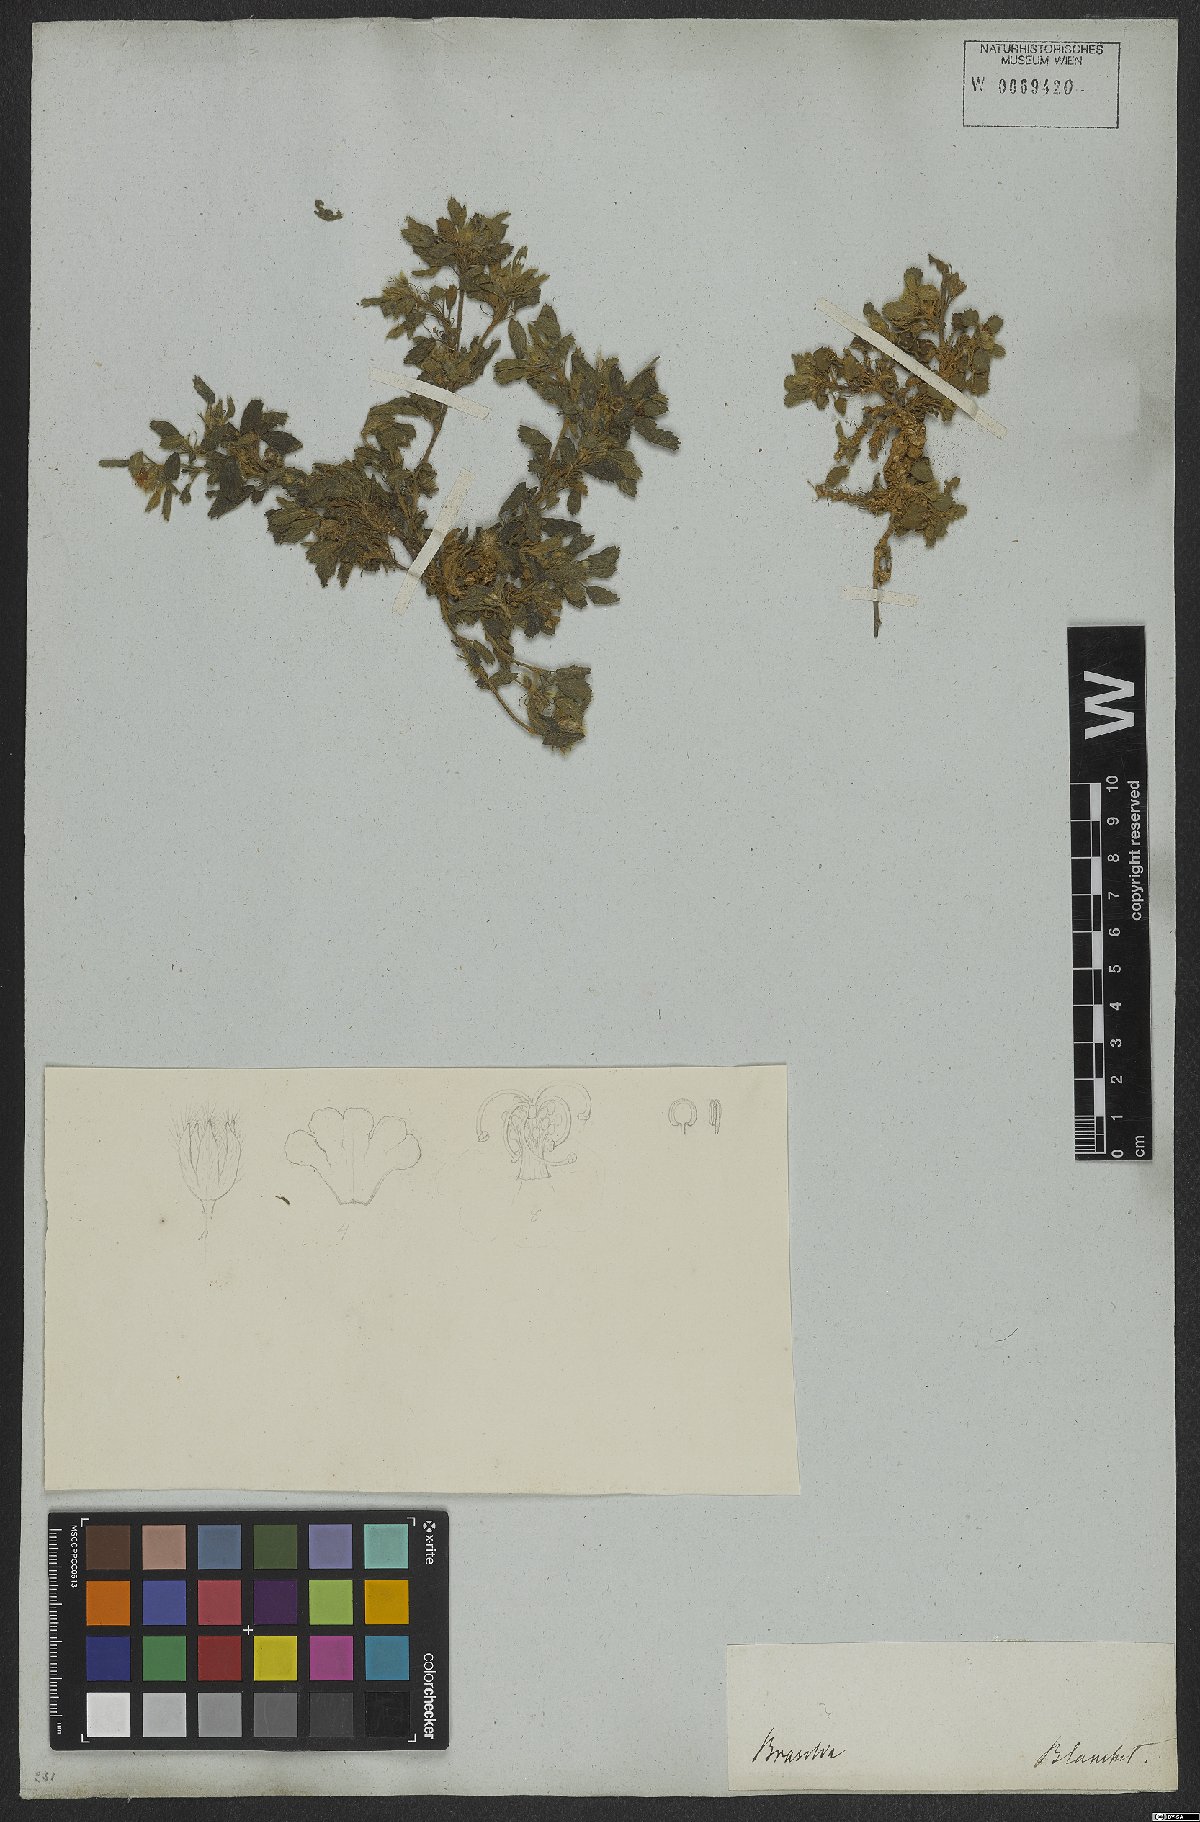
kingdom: Plantae
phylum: Tracheophyta
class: Magnoliopsida
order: Malvales
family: Malvaceae
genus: Sida
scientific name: Sida ciliaris
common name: Bracted fanpetals
